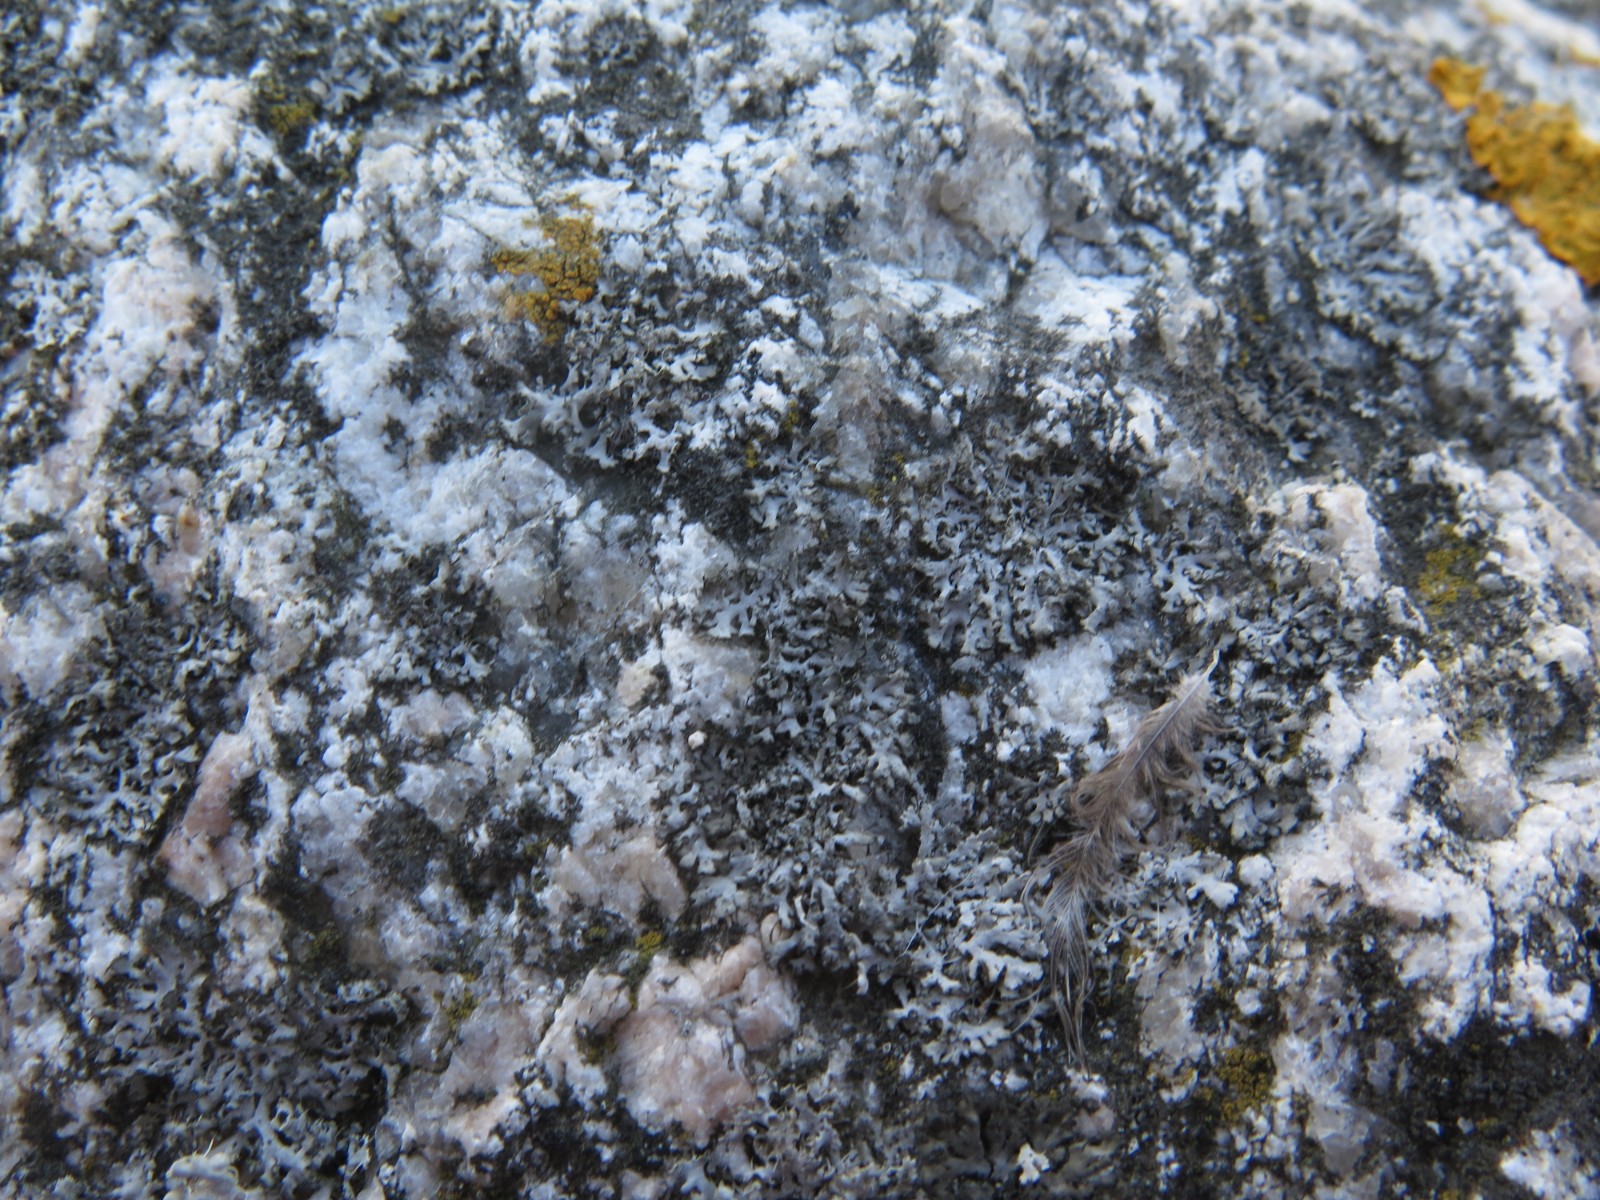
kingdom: Fungi
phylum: Ascomycota
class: Lecanoromycetes
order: Caliciales
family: Physciaceae
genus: Physcia
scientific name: Physcia tenella
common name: spæd rosetlav
